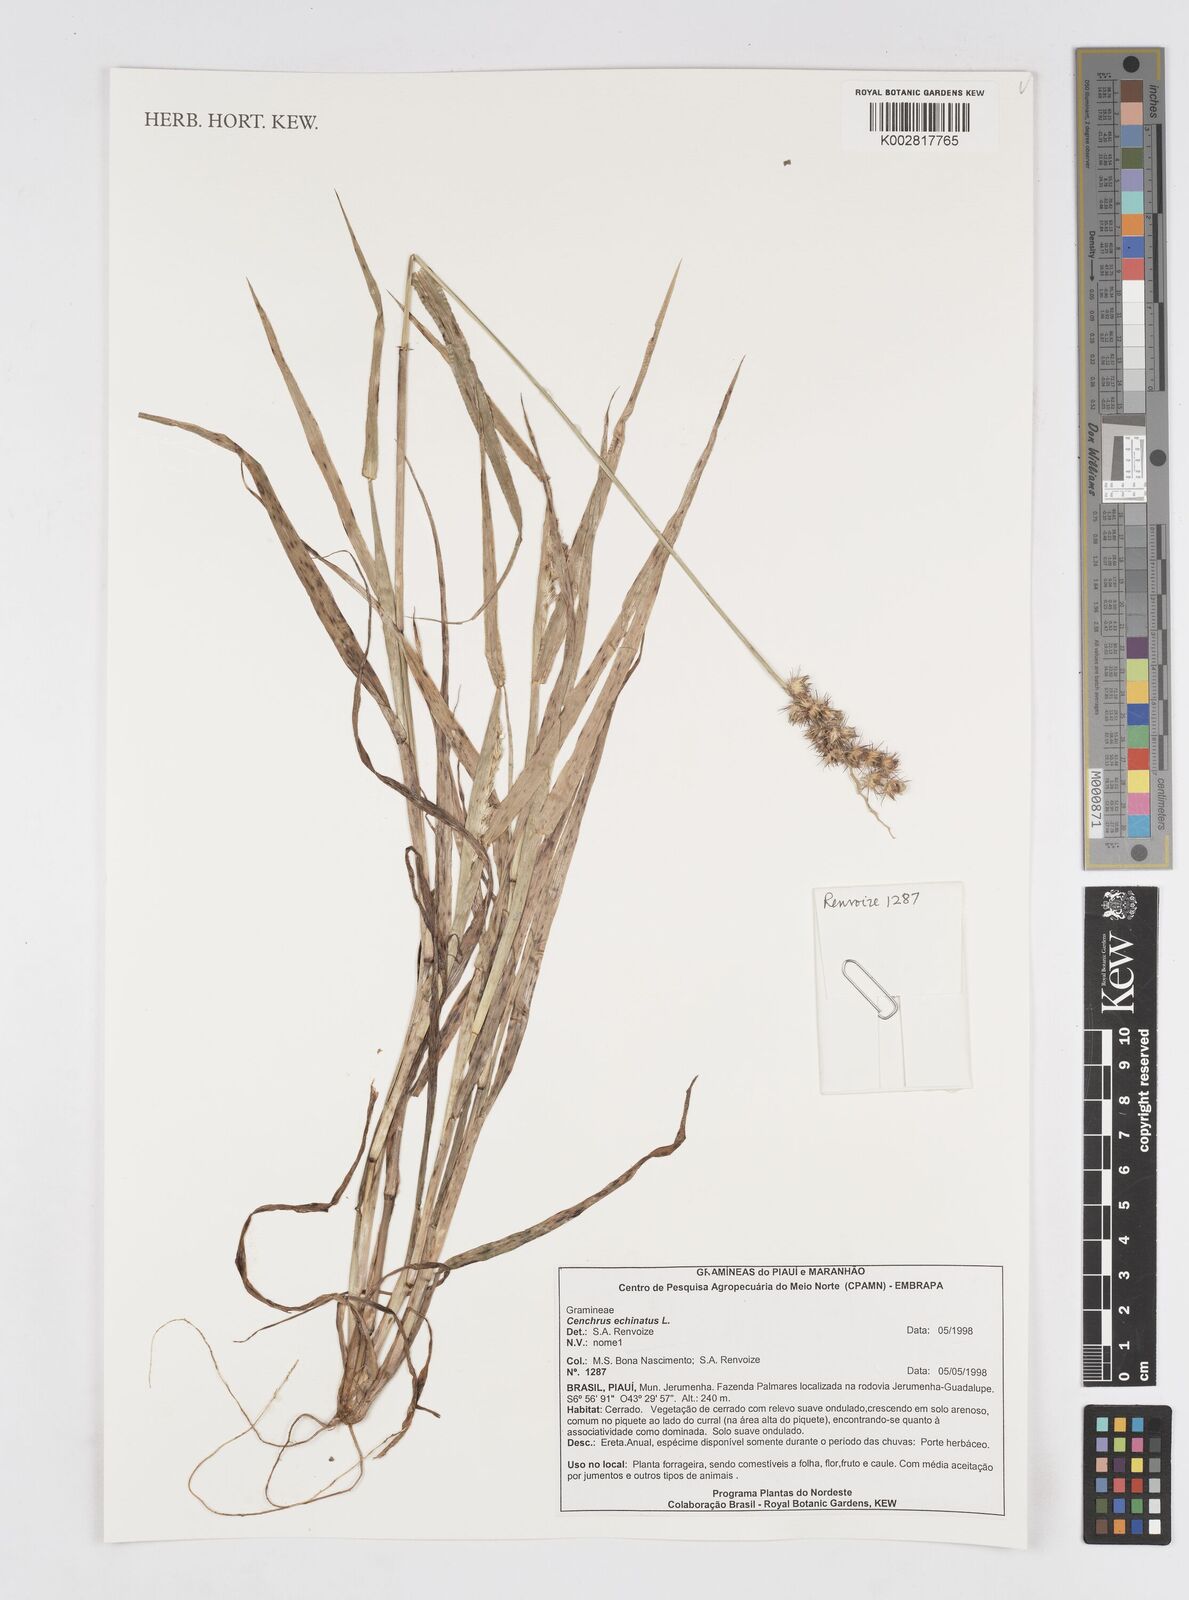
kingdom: Plantae
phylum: Tracheophyta
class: Liliopsida
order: Poales
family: Poaceae
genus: Cenchrus
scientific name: Cenchrus
